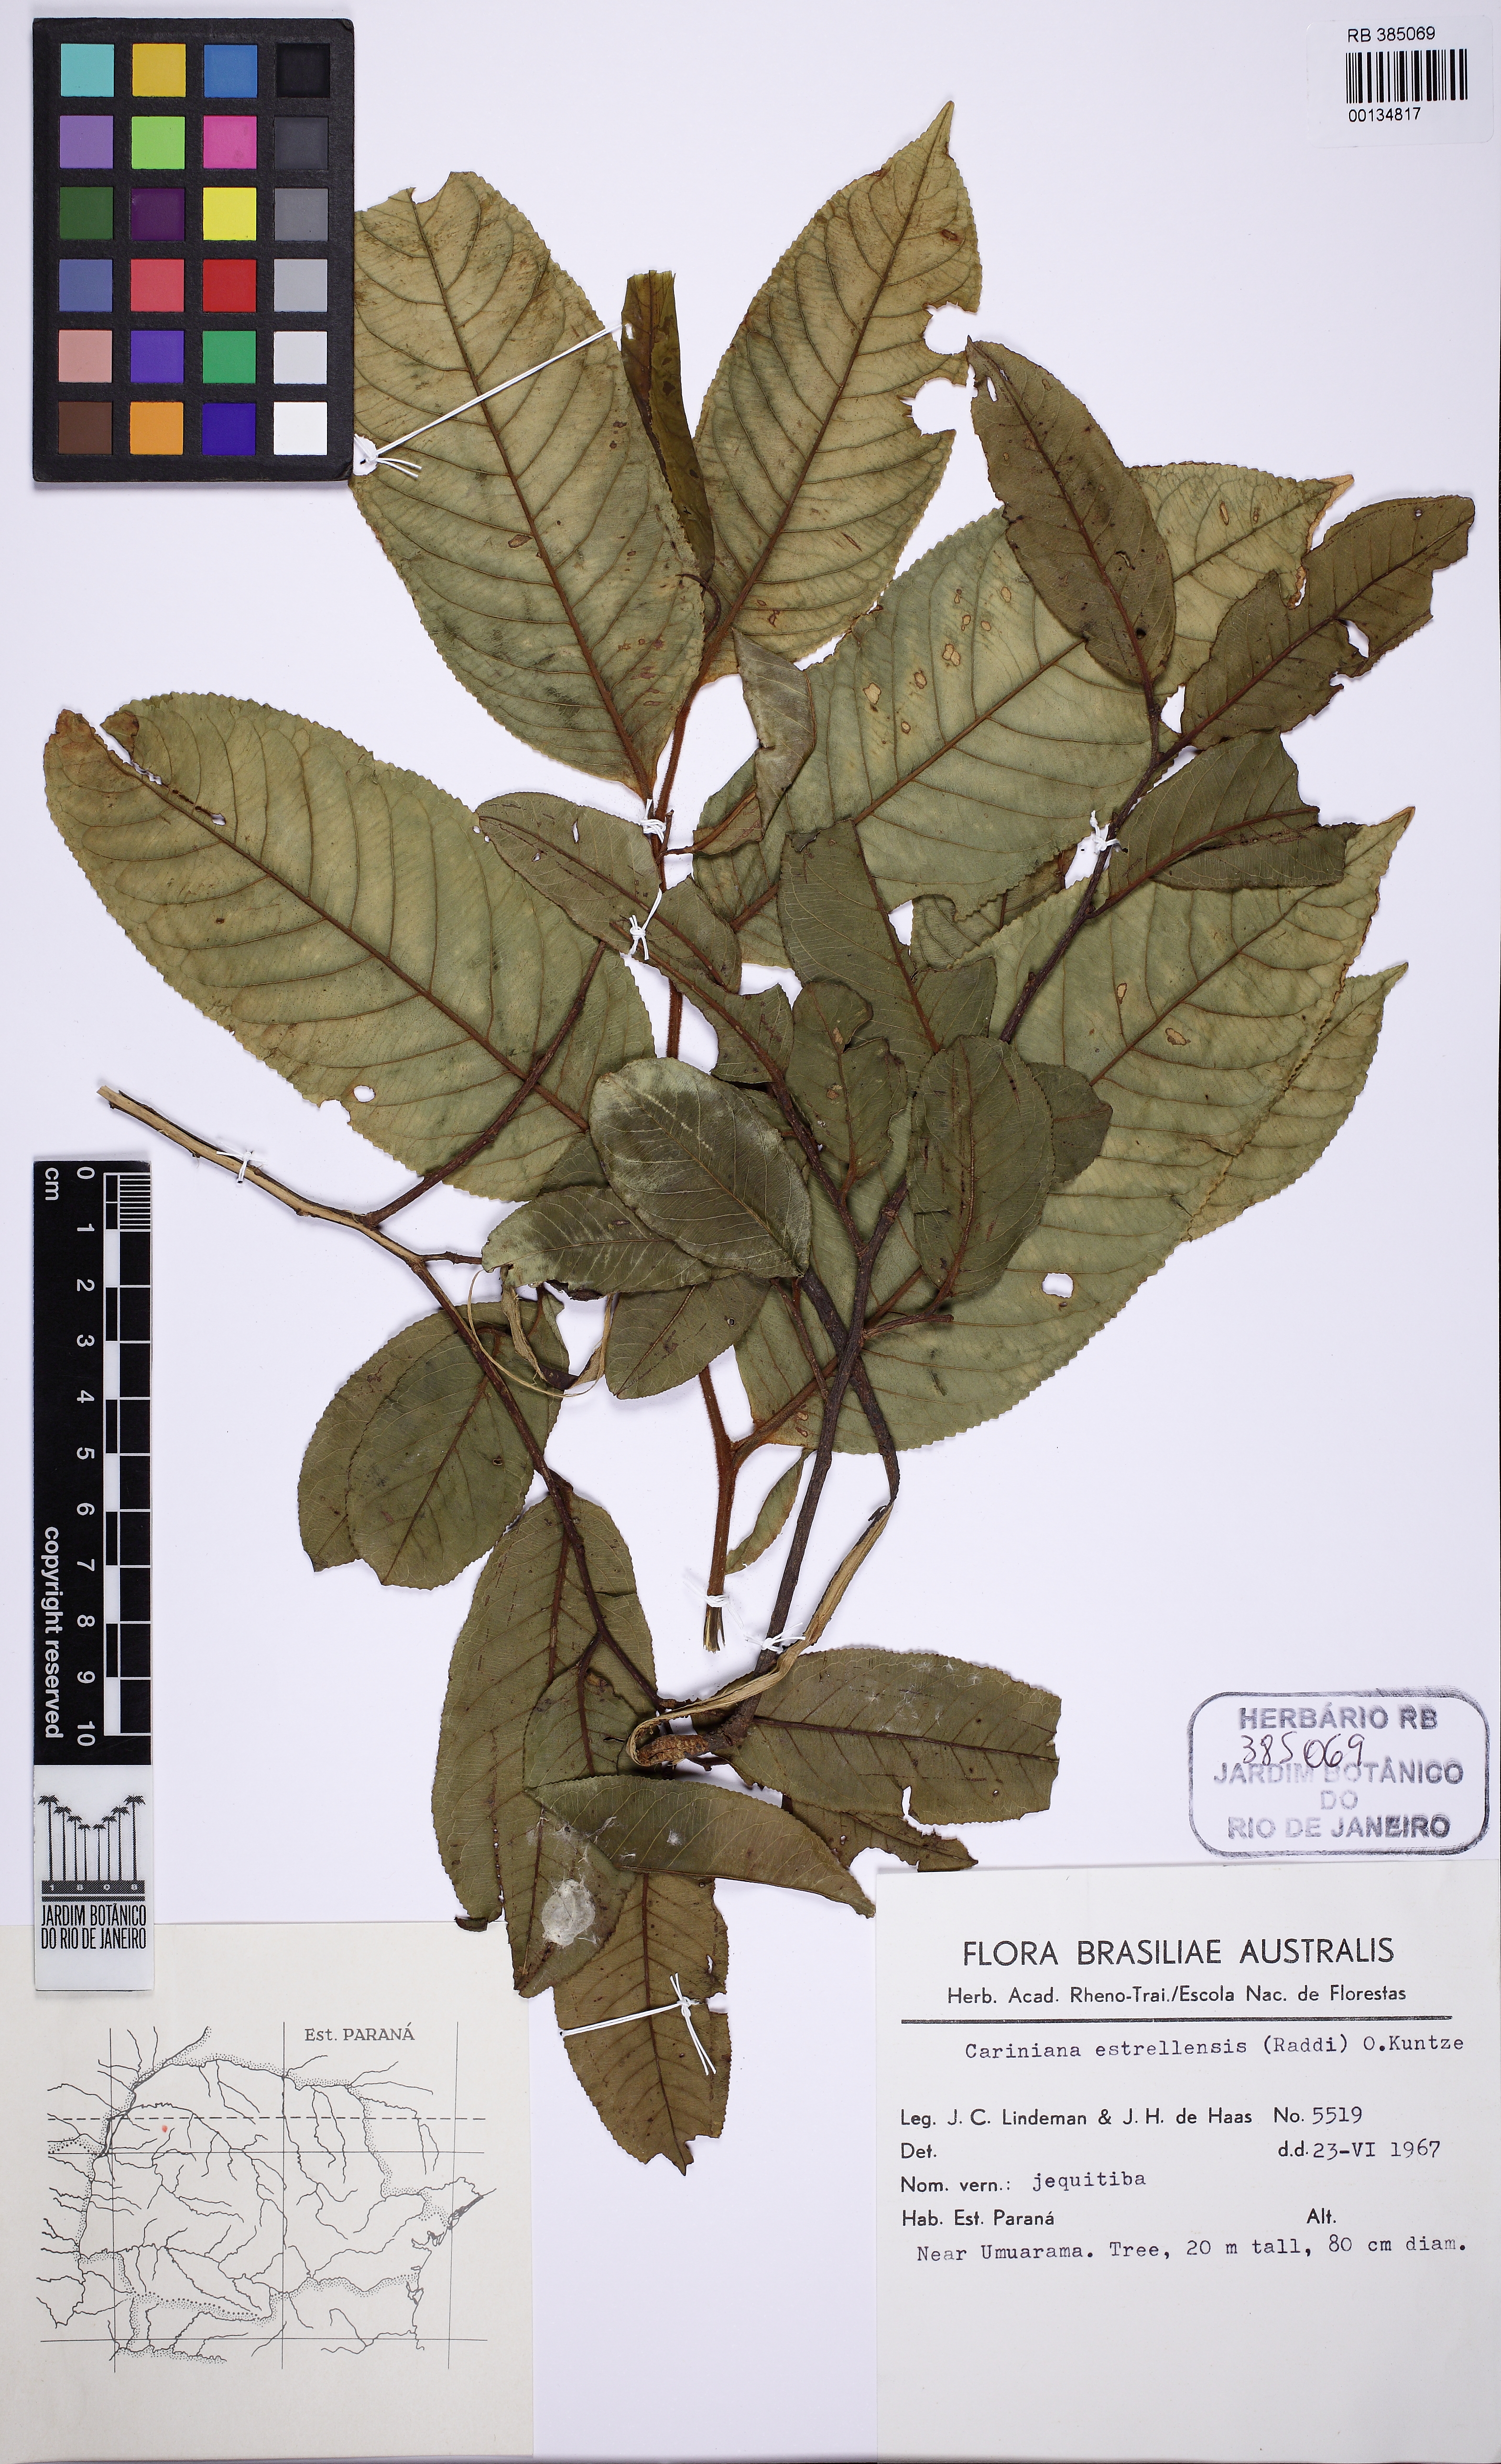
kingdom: Plantae
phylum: Tracheophyta
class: Magnoliopsida
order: Ericales
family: Lecythidaceae
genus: Cariniana
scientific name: Cariniana estrellensis
